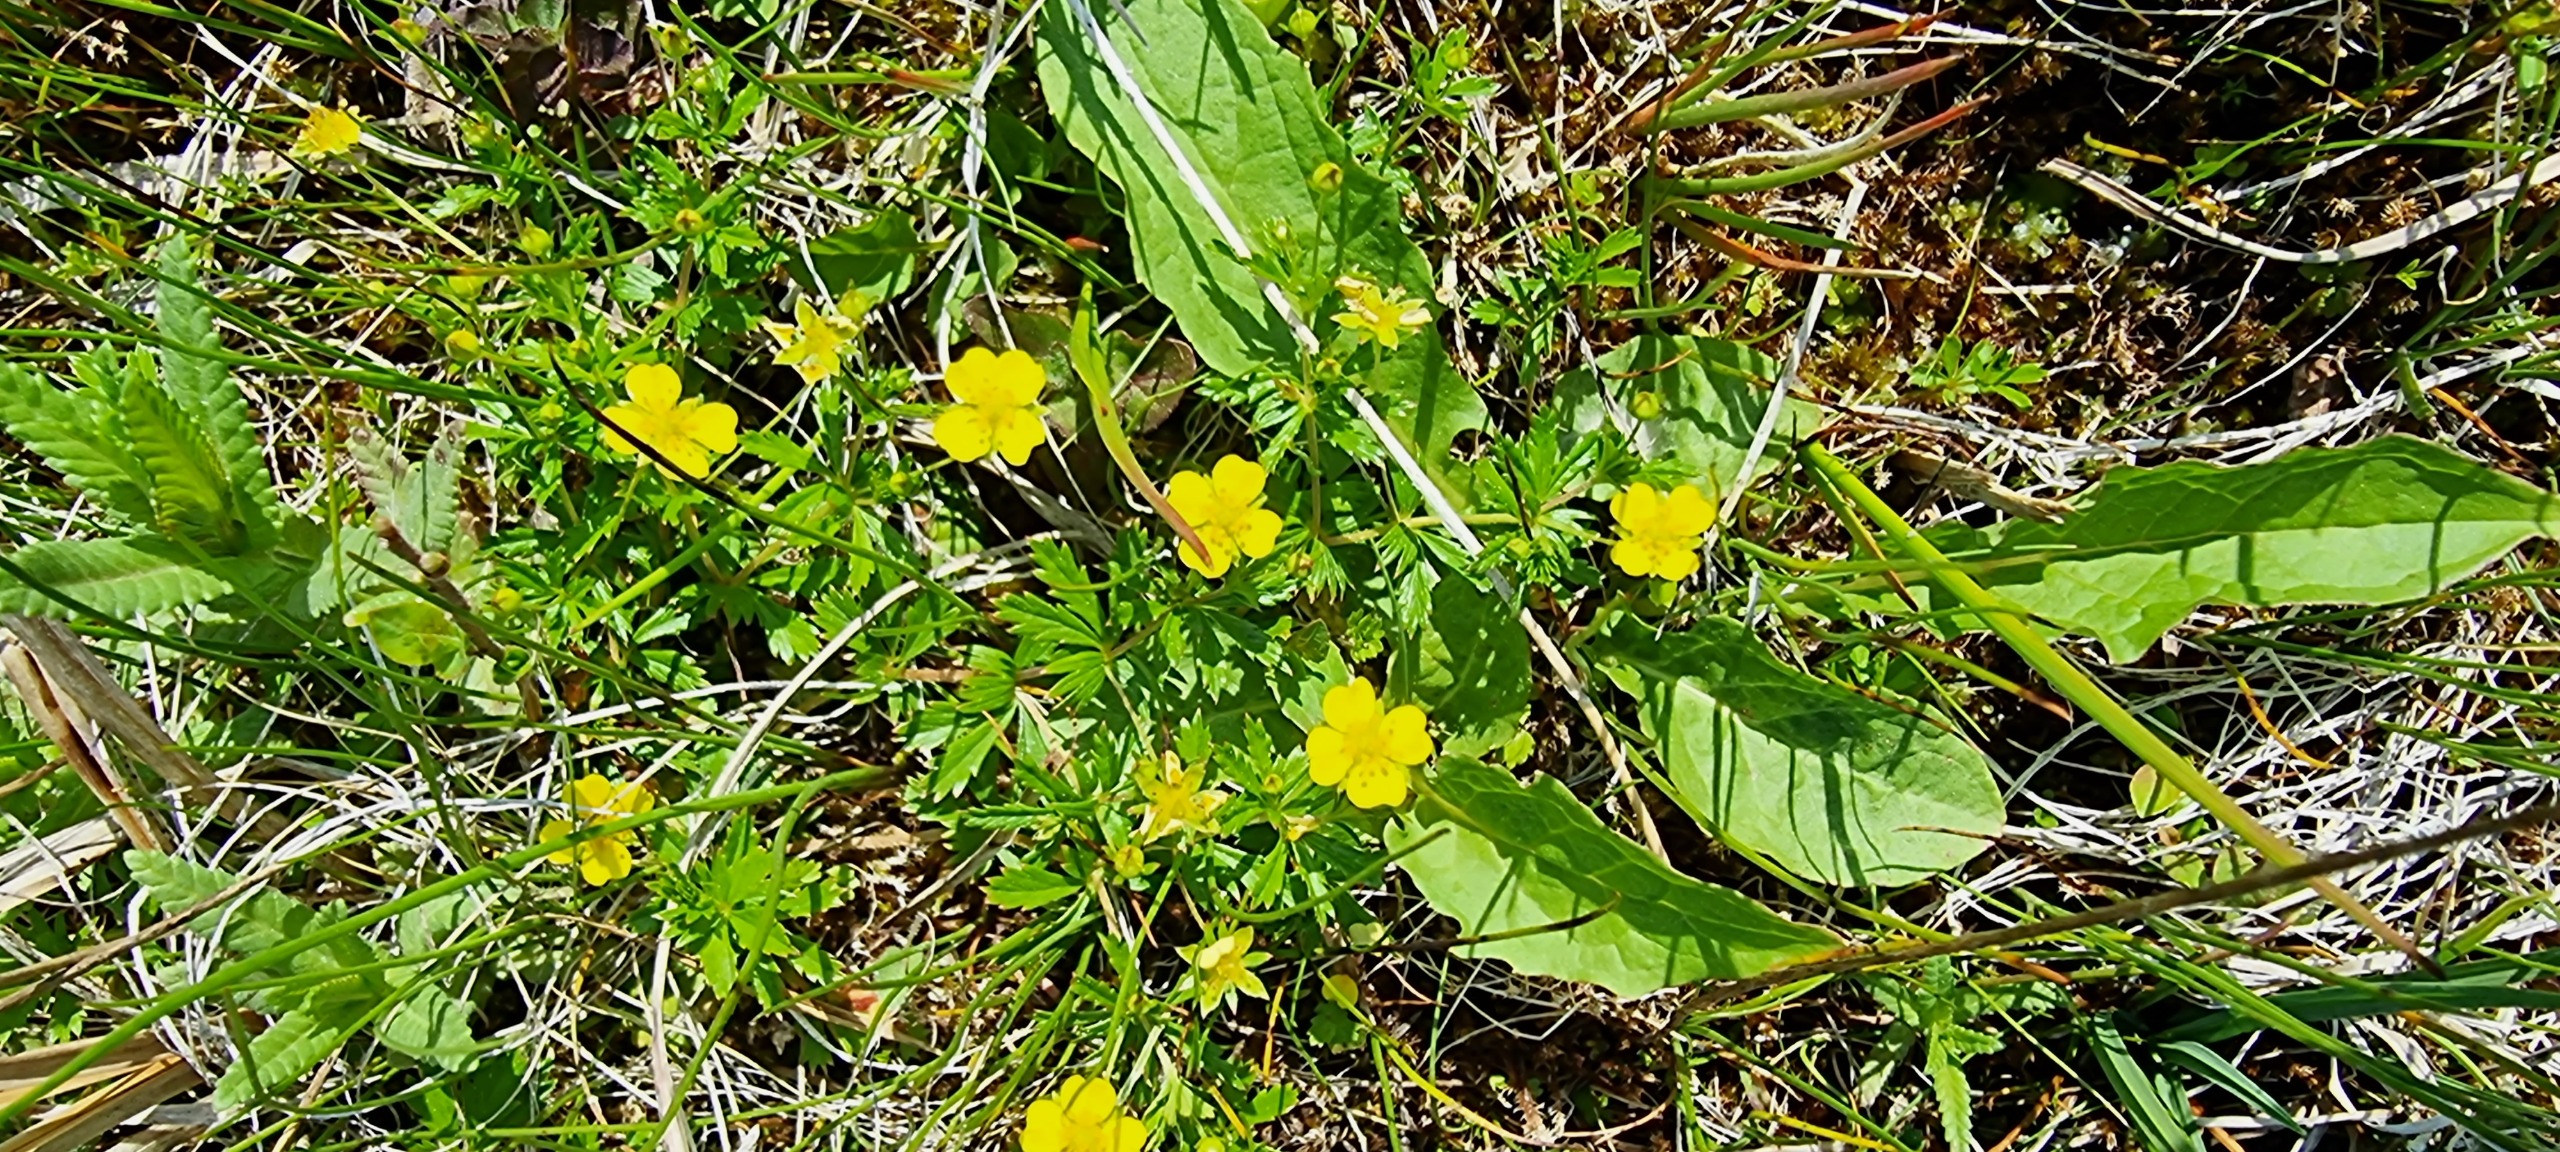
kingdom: Plantae
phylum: Tracheophyta
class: Magnoliopsida
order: Rosales
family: Rosaceae
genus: Potentilla
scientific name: Potentilla erecta
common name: Tormentil
